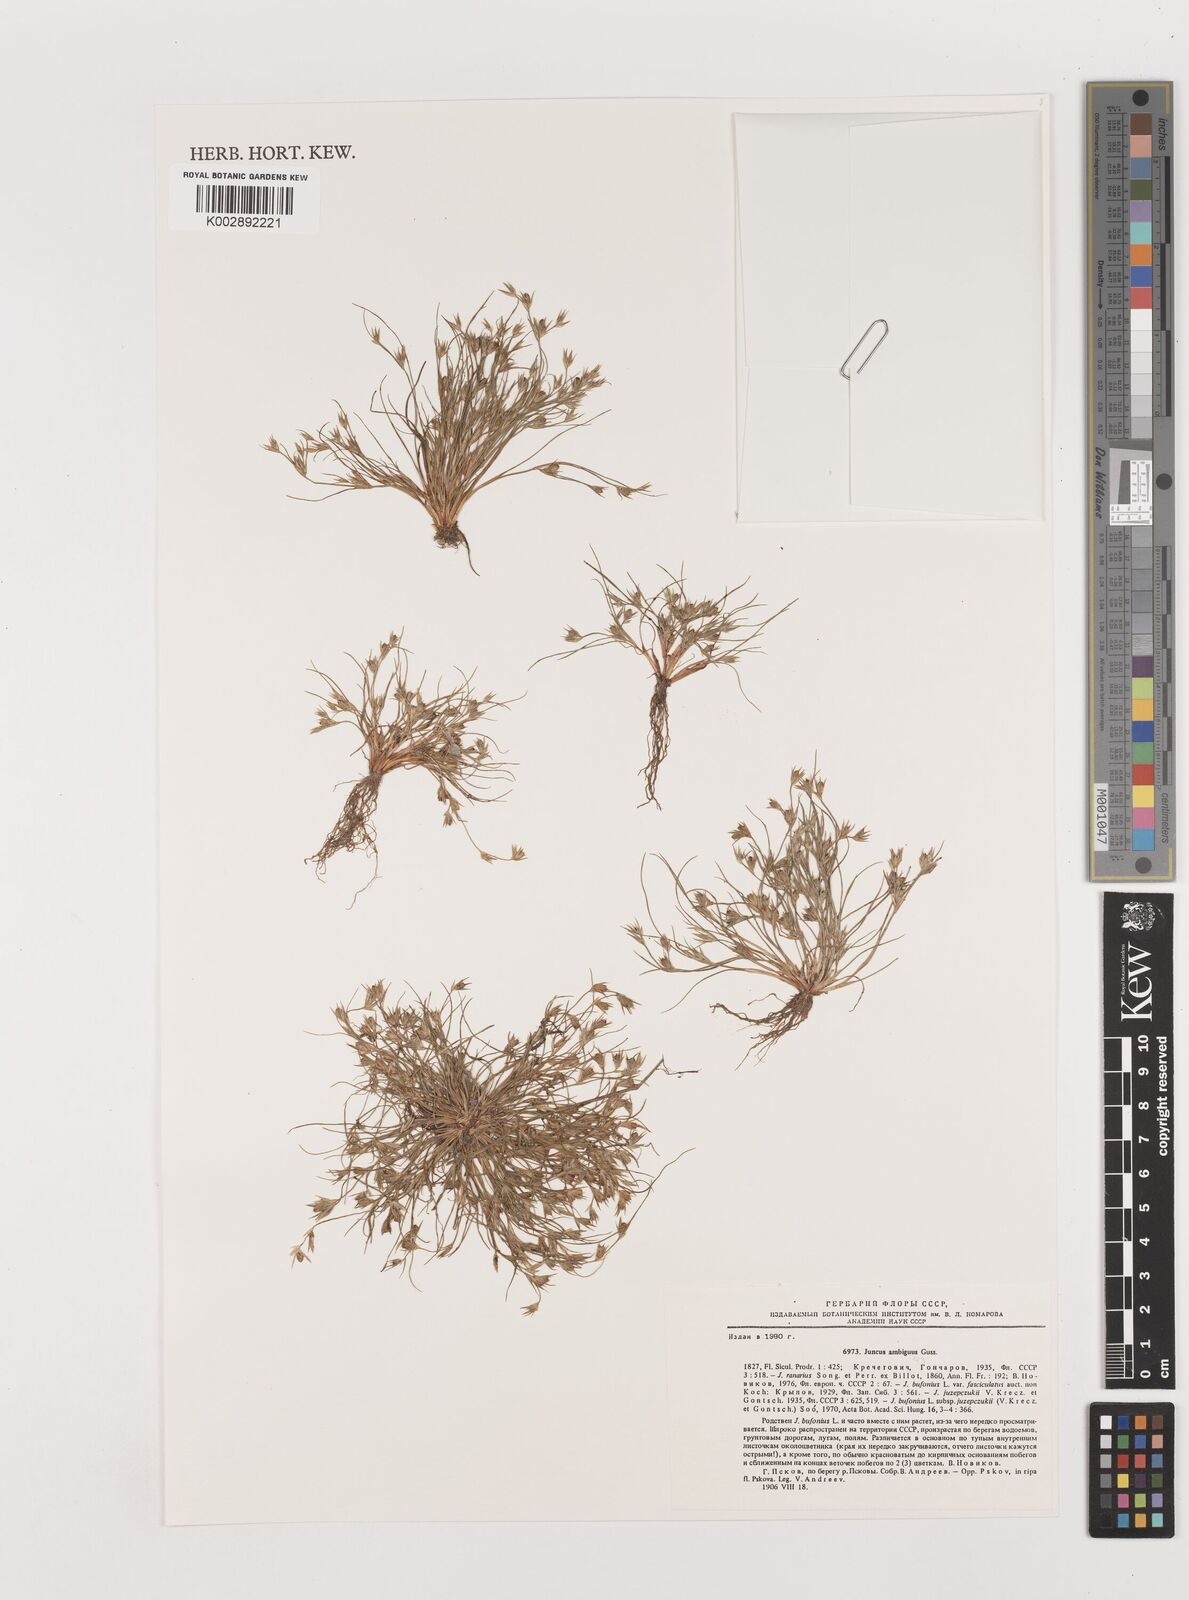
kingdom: Plantae
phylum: Tracheophyta
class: Liliopsida
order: Poales
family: Juncaceae
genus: Juncus
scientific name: Juncus hybridus
